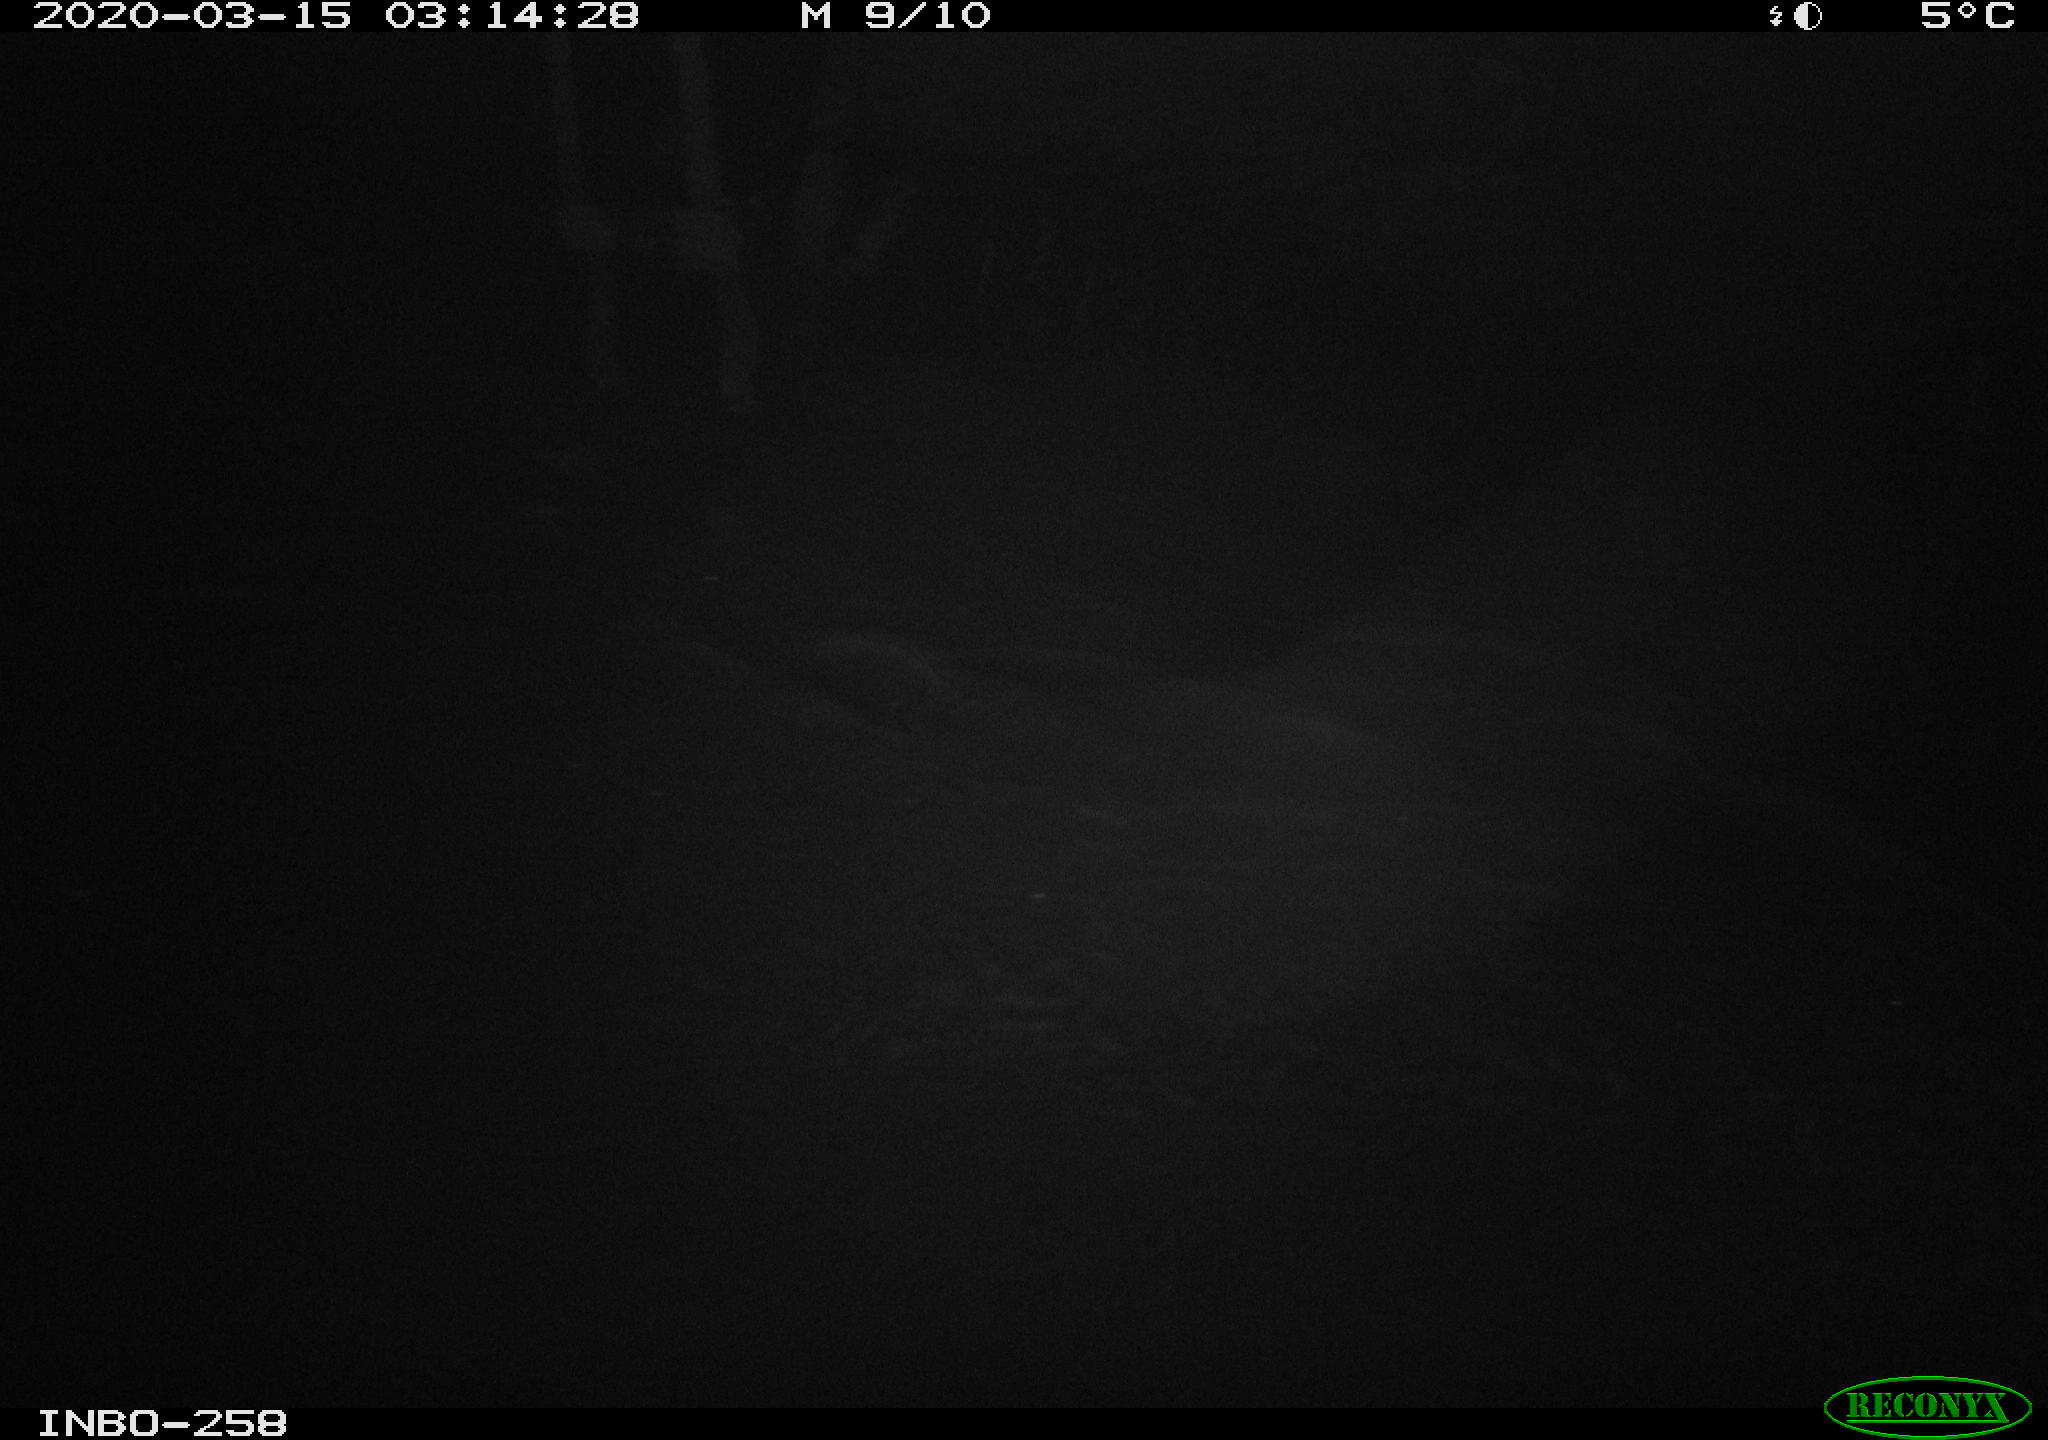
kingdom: Animalia
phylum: Chordata
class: Aves
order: Anseriformes
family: Anatidae
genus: Anas
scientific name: Anas platyrhynchos
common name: Mallard
